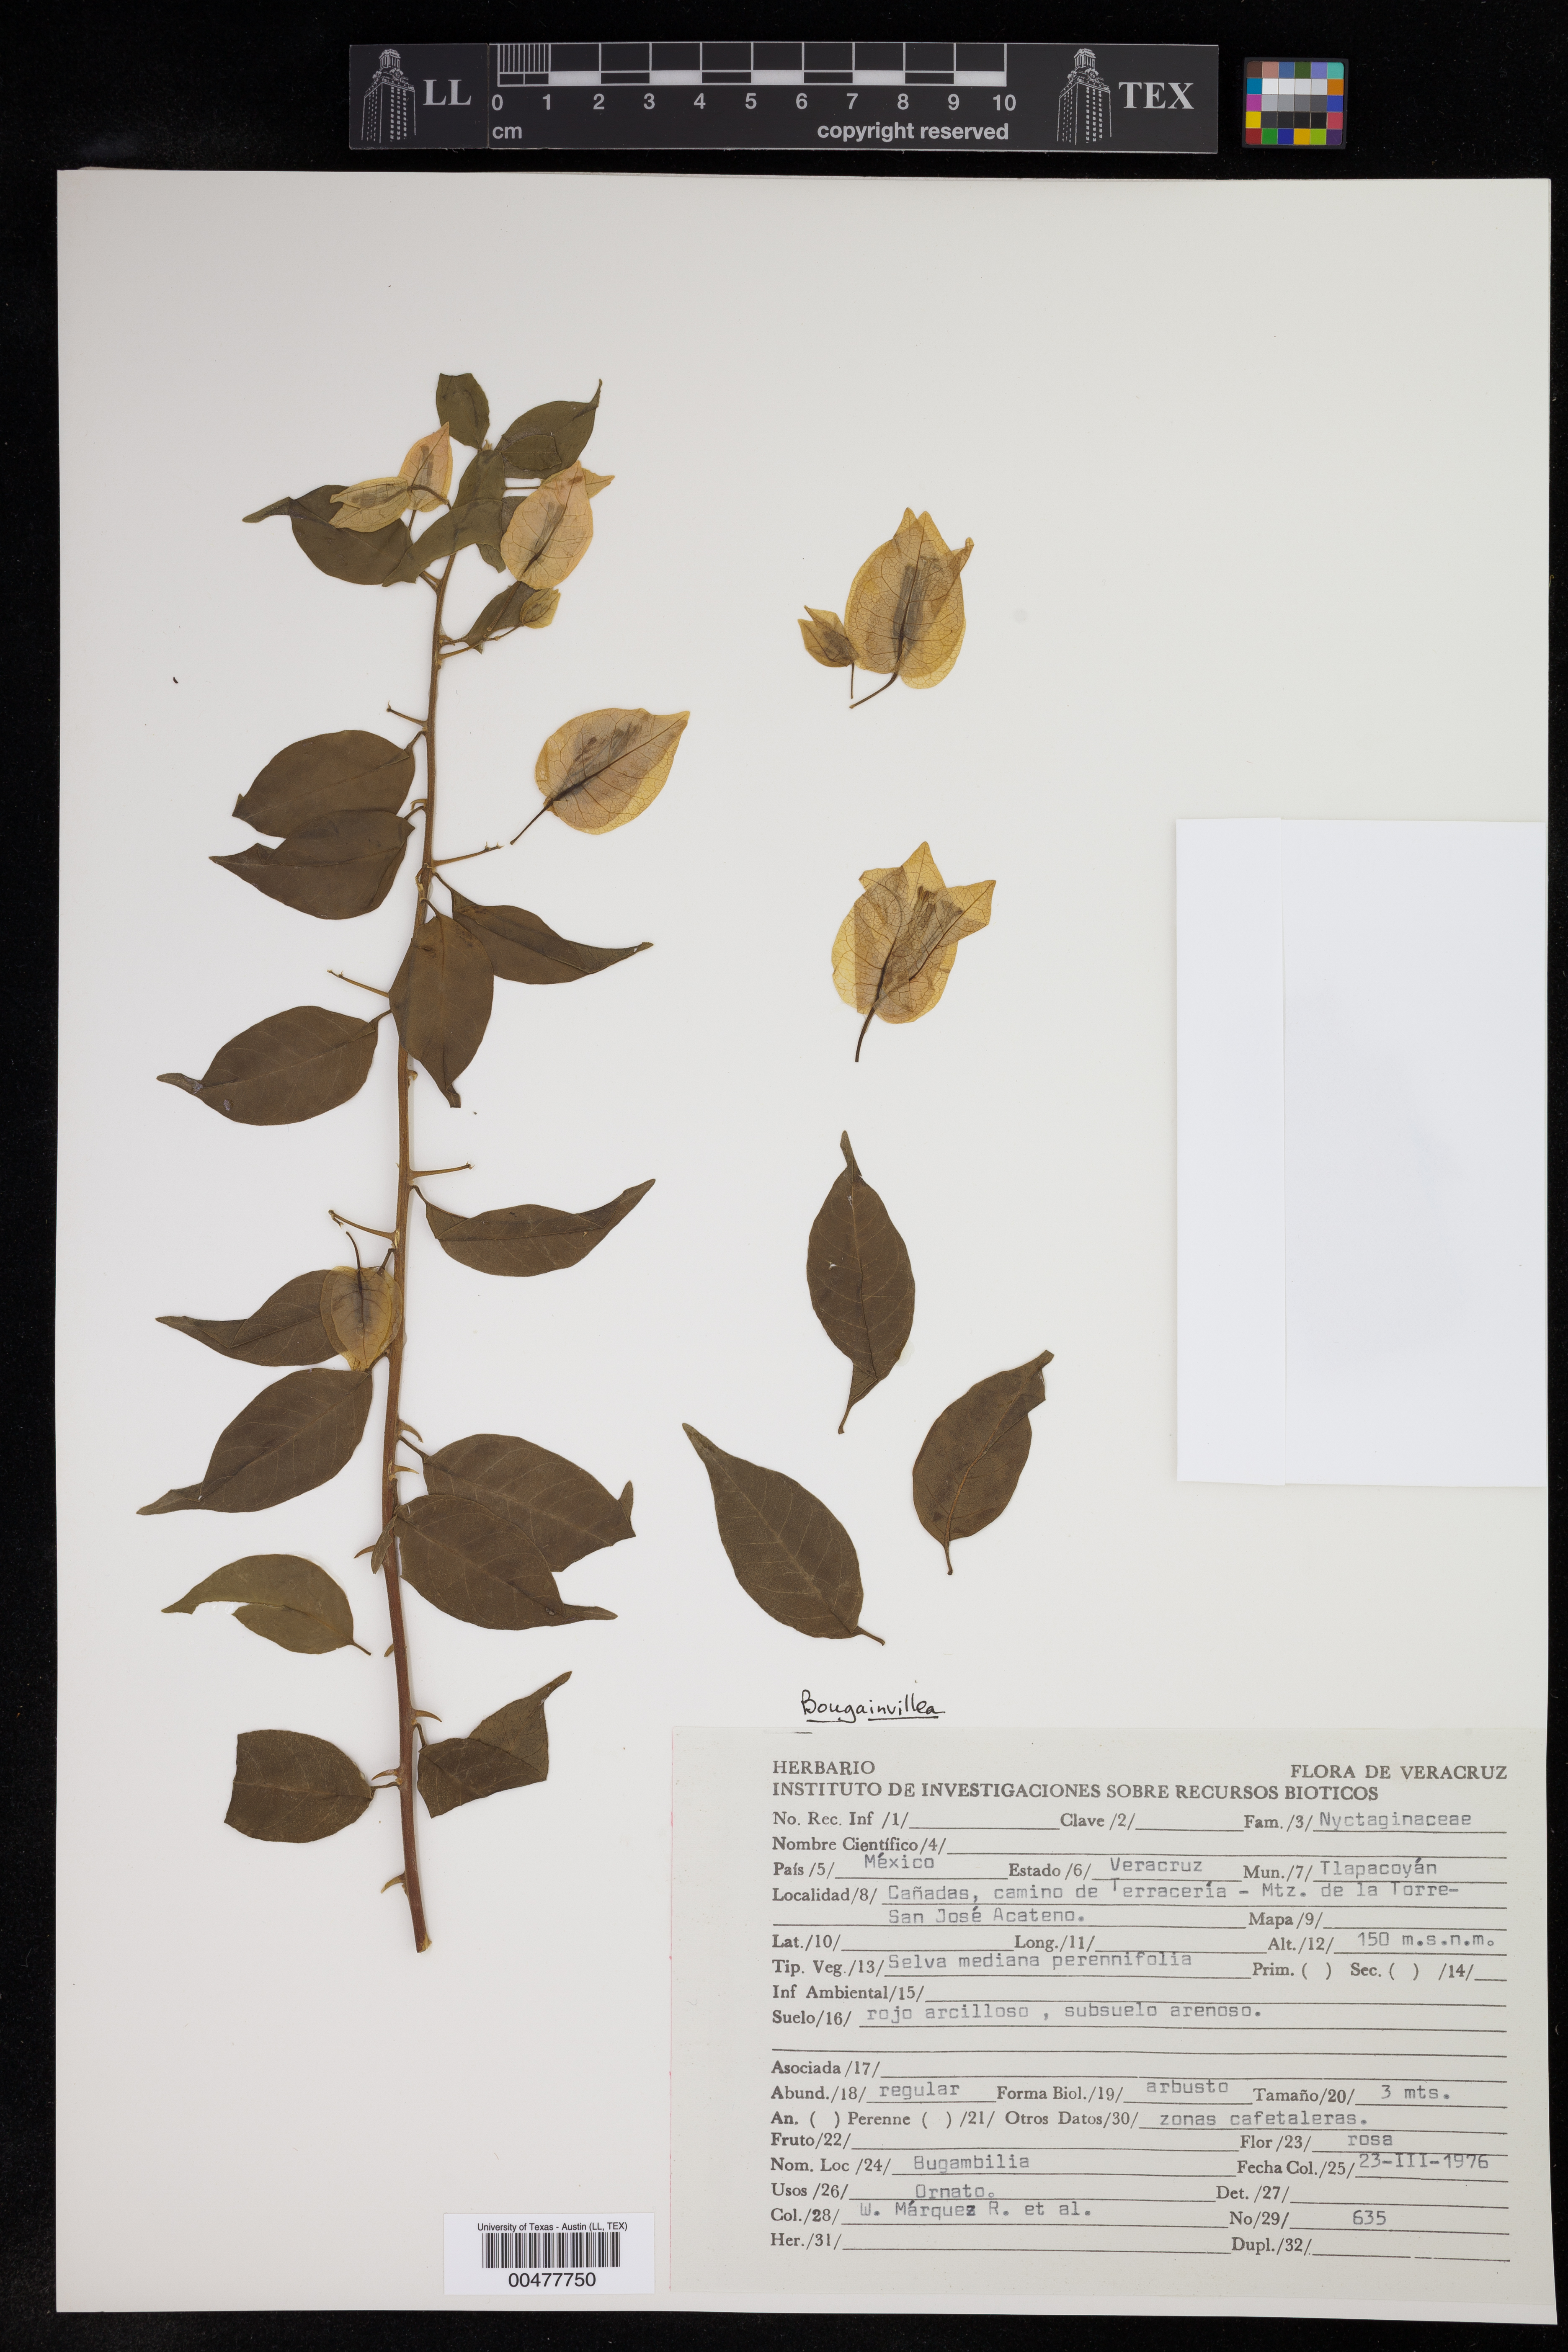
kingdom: Plantae
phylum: Tracheophyta
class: Magnoliopsida
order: Caryophyllales
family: Nyctaginaceae
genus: Bougainvillea
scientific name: Bougainvillea
